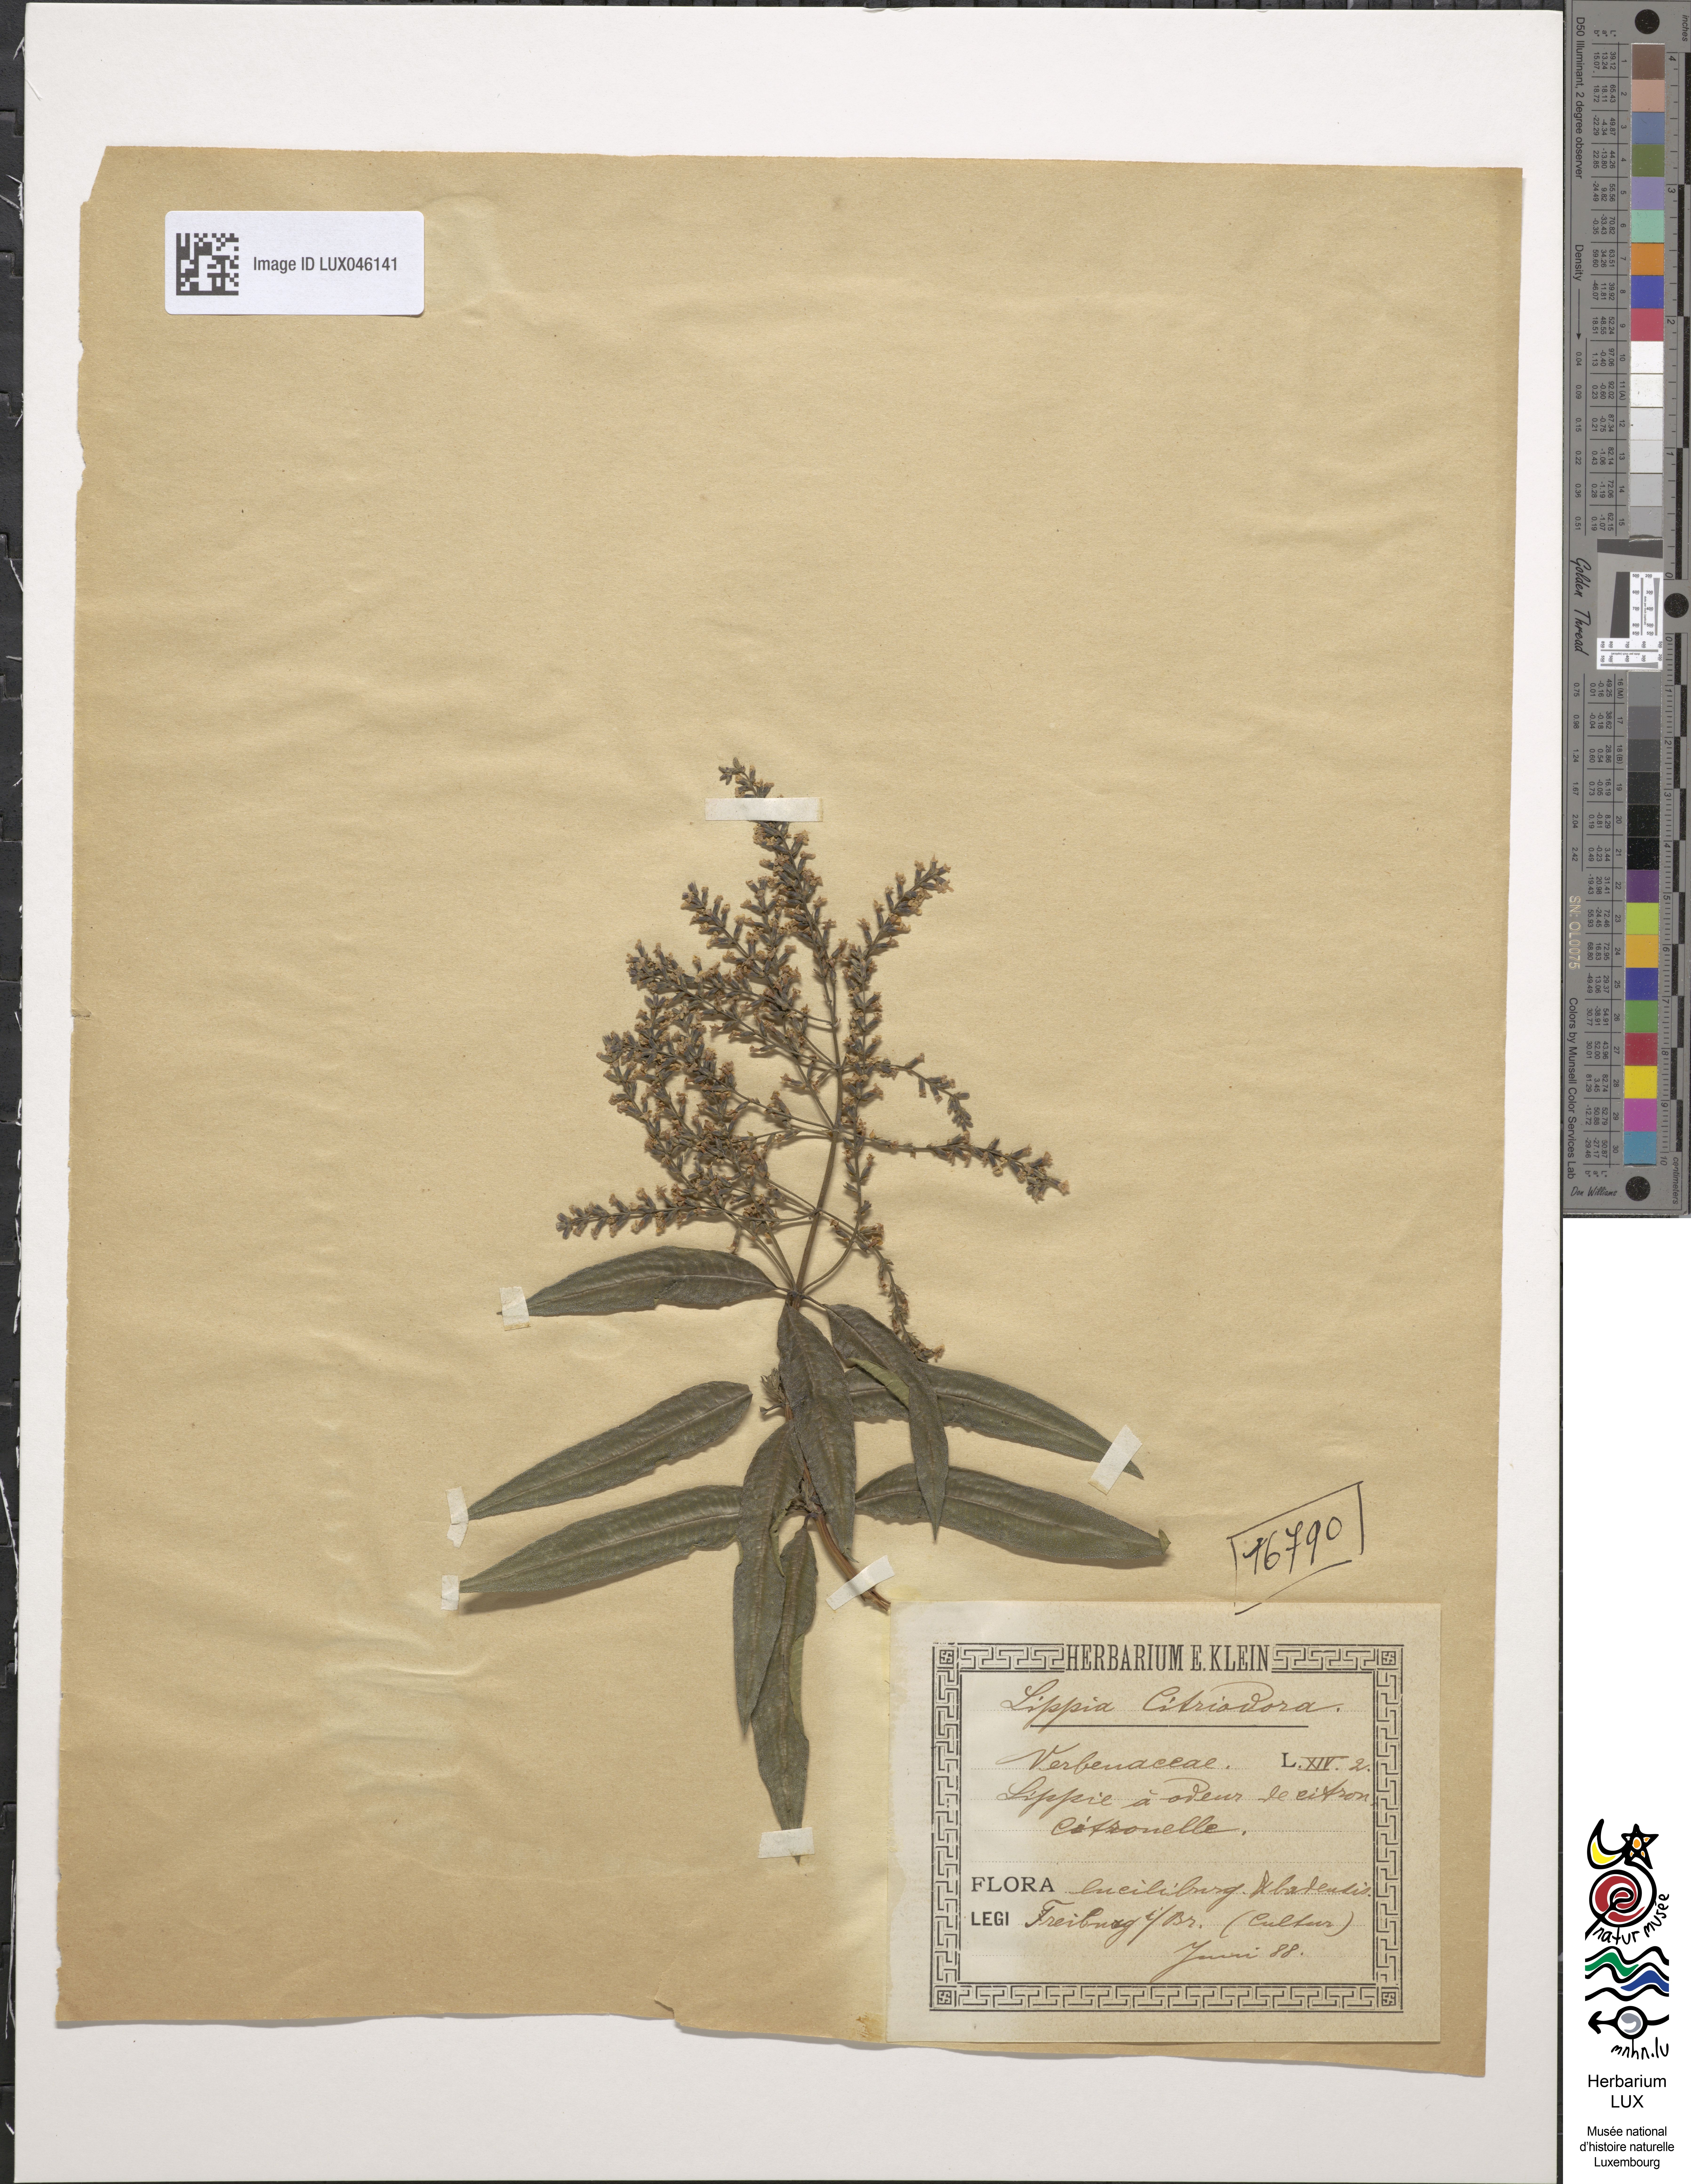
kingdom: Plantae
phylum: Tracheophyta
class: Magnoliopsida
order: Lamiales
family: Verbenaceae
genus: Aloysia
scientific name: Aloysia citrodora
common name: Lemon beebrush
